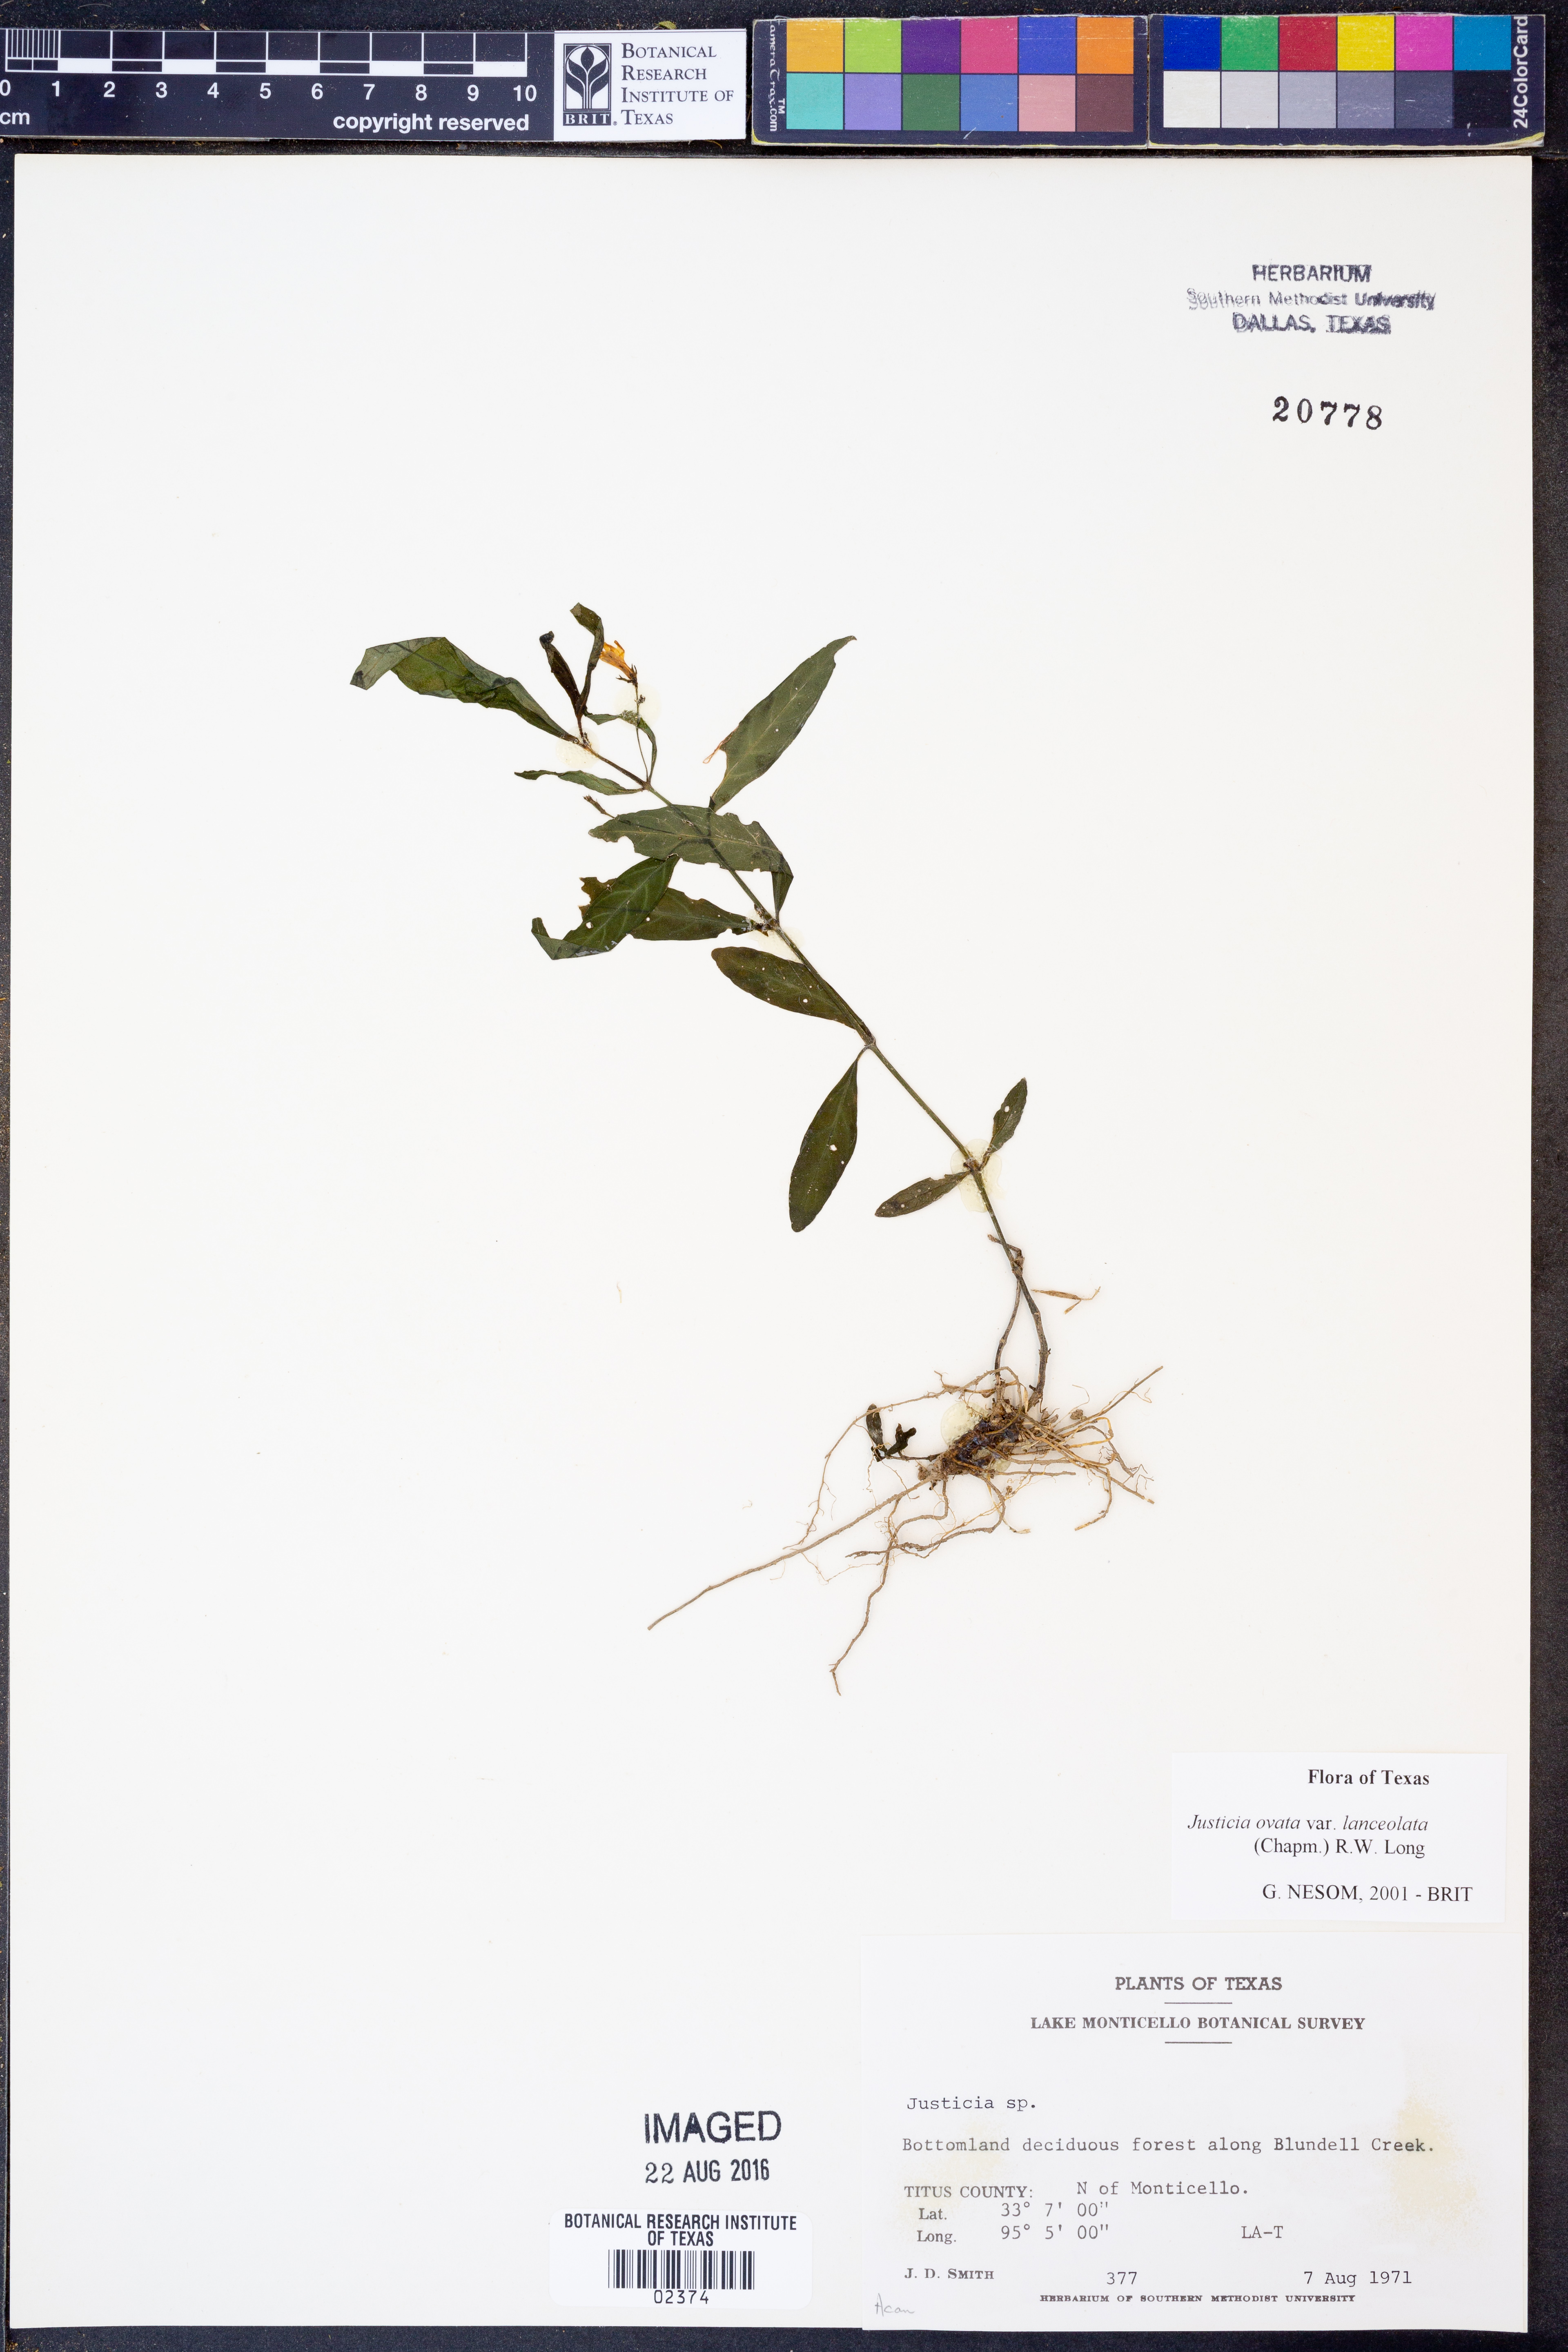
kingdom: Plantae
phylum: Tracheophyta
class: Magnoliopsida
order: Lamiales
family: Acanthaceae
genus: Justicia
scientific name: Justicia lanceolata
